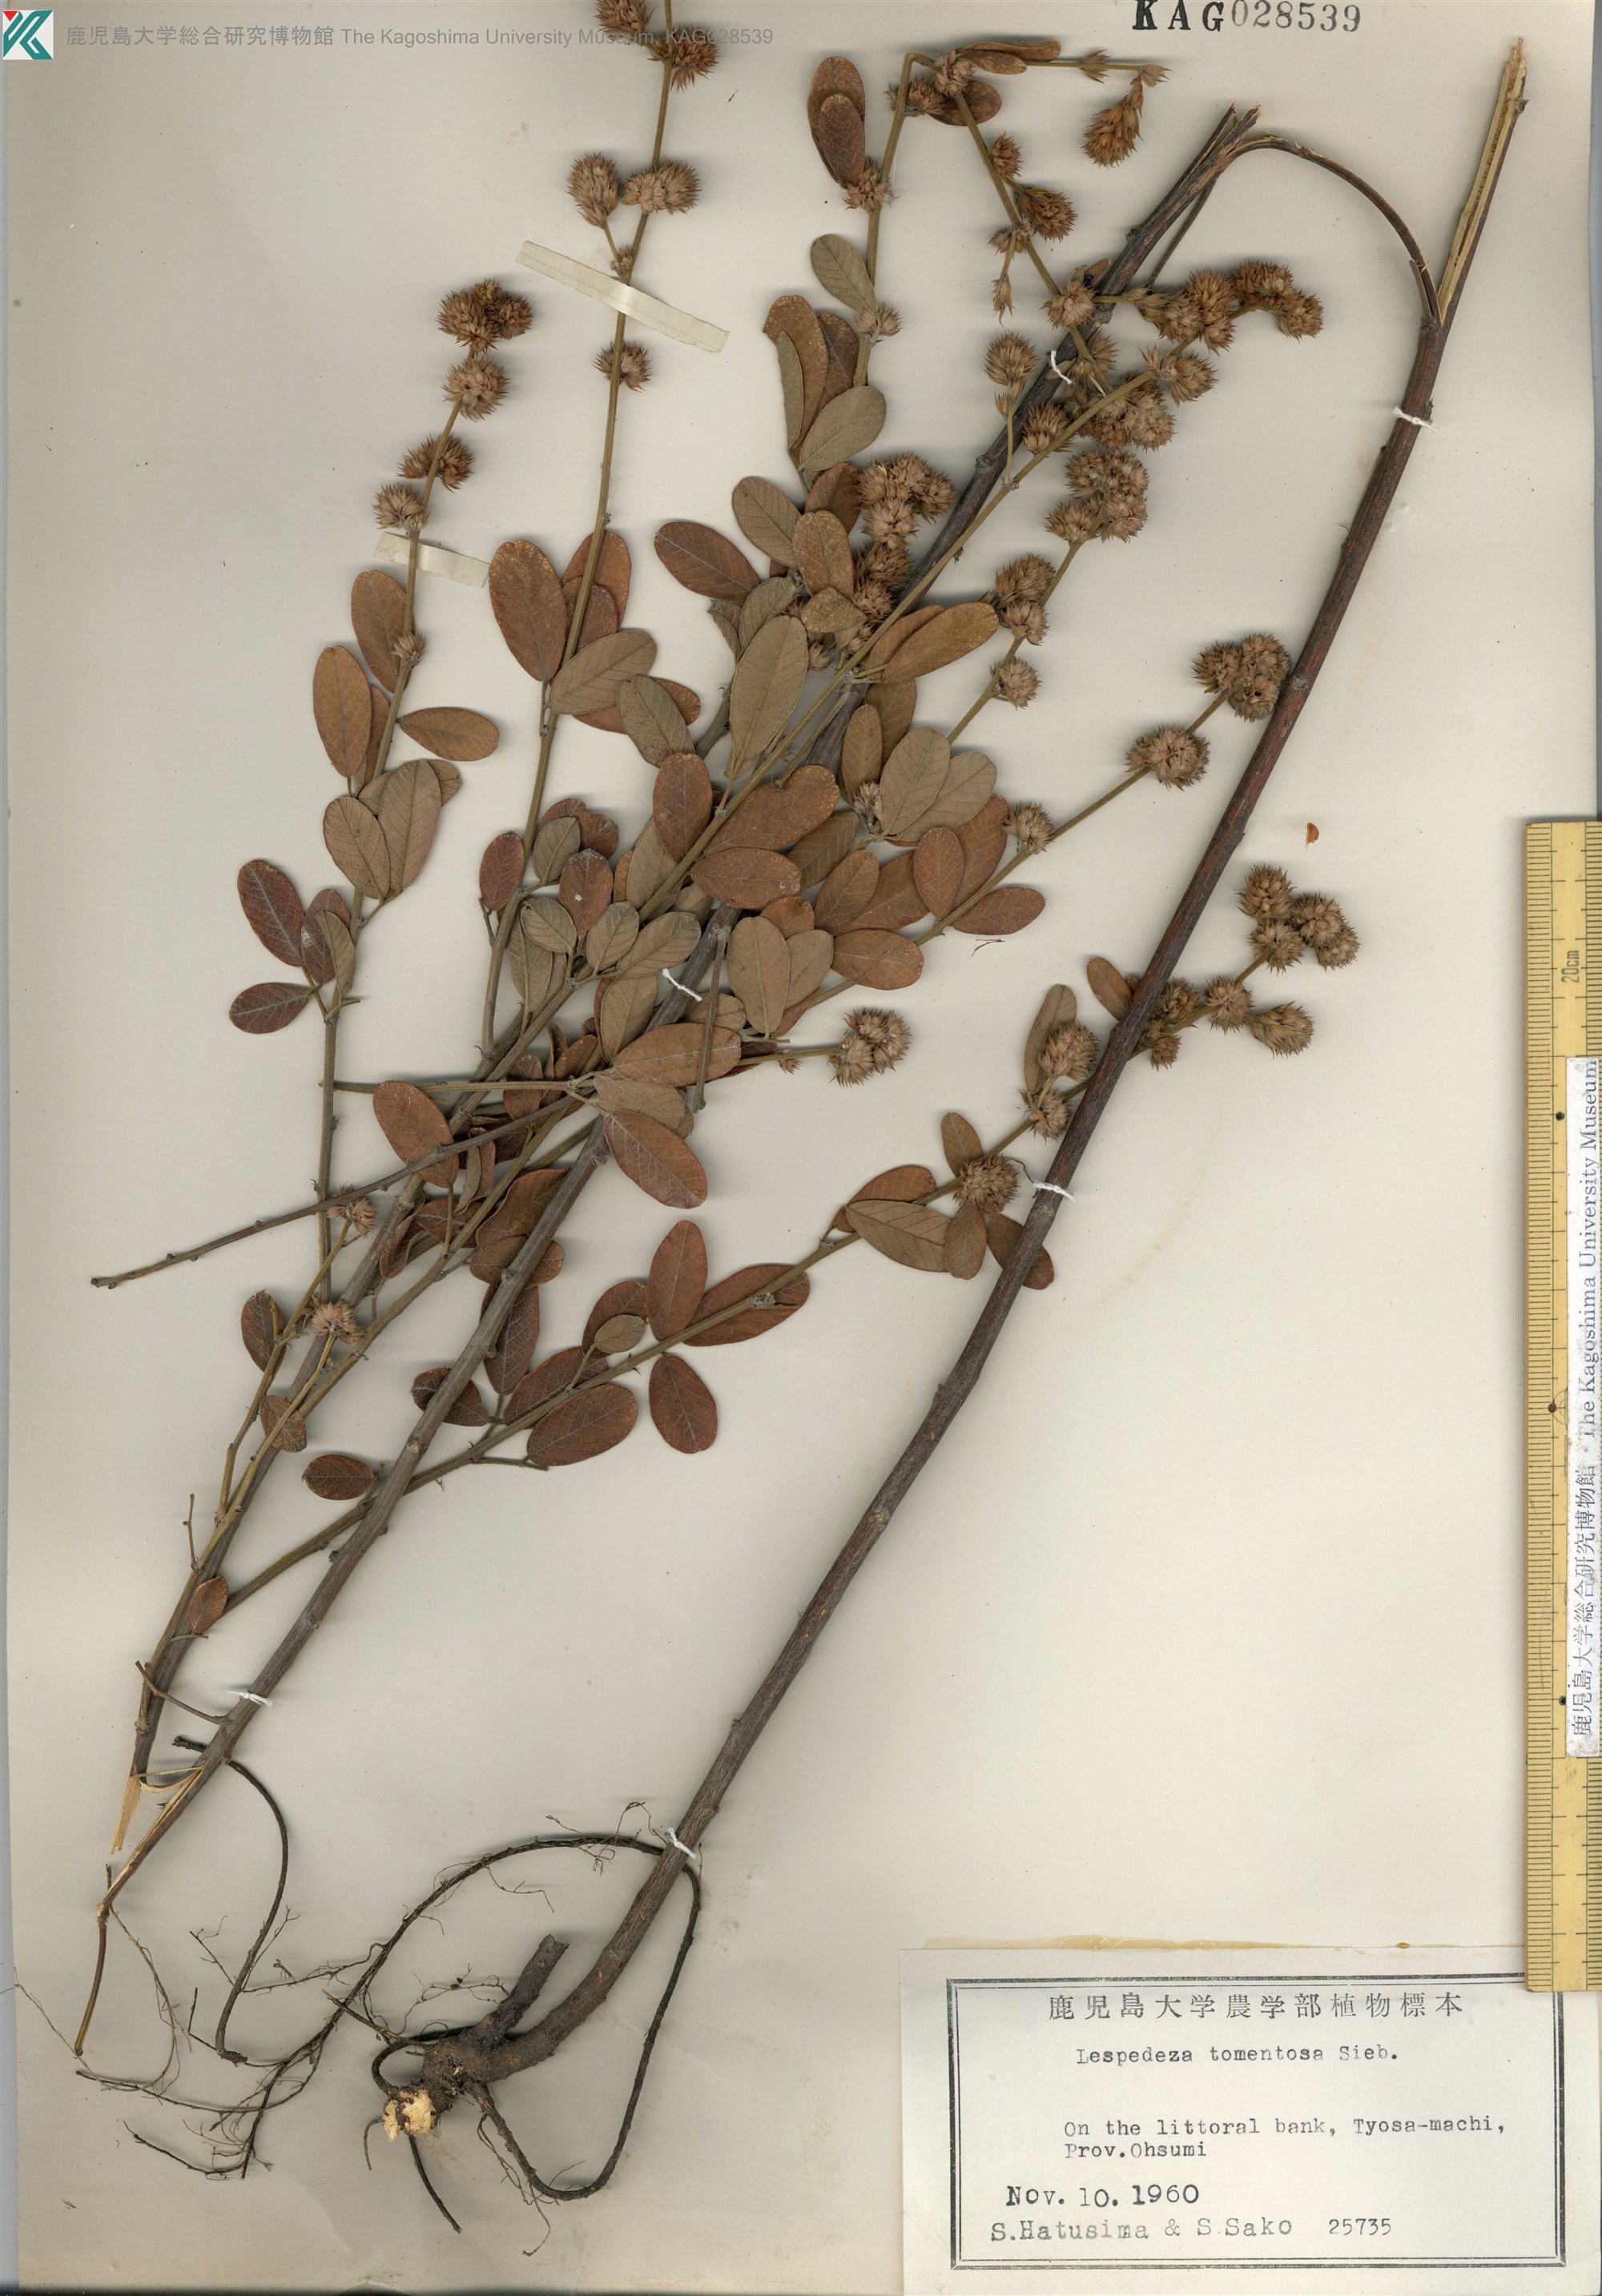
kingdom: Plantae
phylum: Tracheophyta
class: Magnoliopsida
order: Fabales
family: Fabaceae
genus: Lespedeza
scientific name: Lespedeza tomentosa
